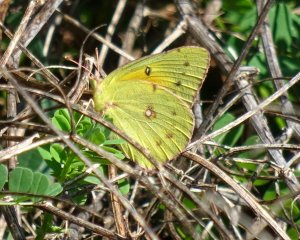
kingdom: Animalia
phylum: Arthropoda
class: Insecta
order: Lepidoptera
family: Pieridae
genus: Colias
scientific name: Colias eurytheme
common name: Orange Sulphur
